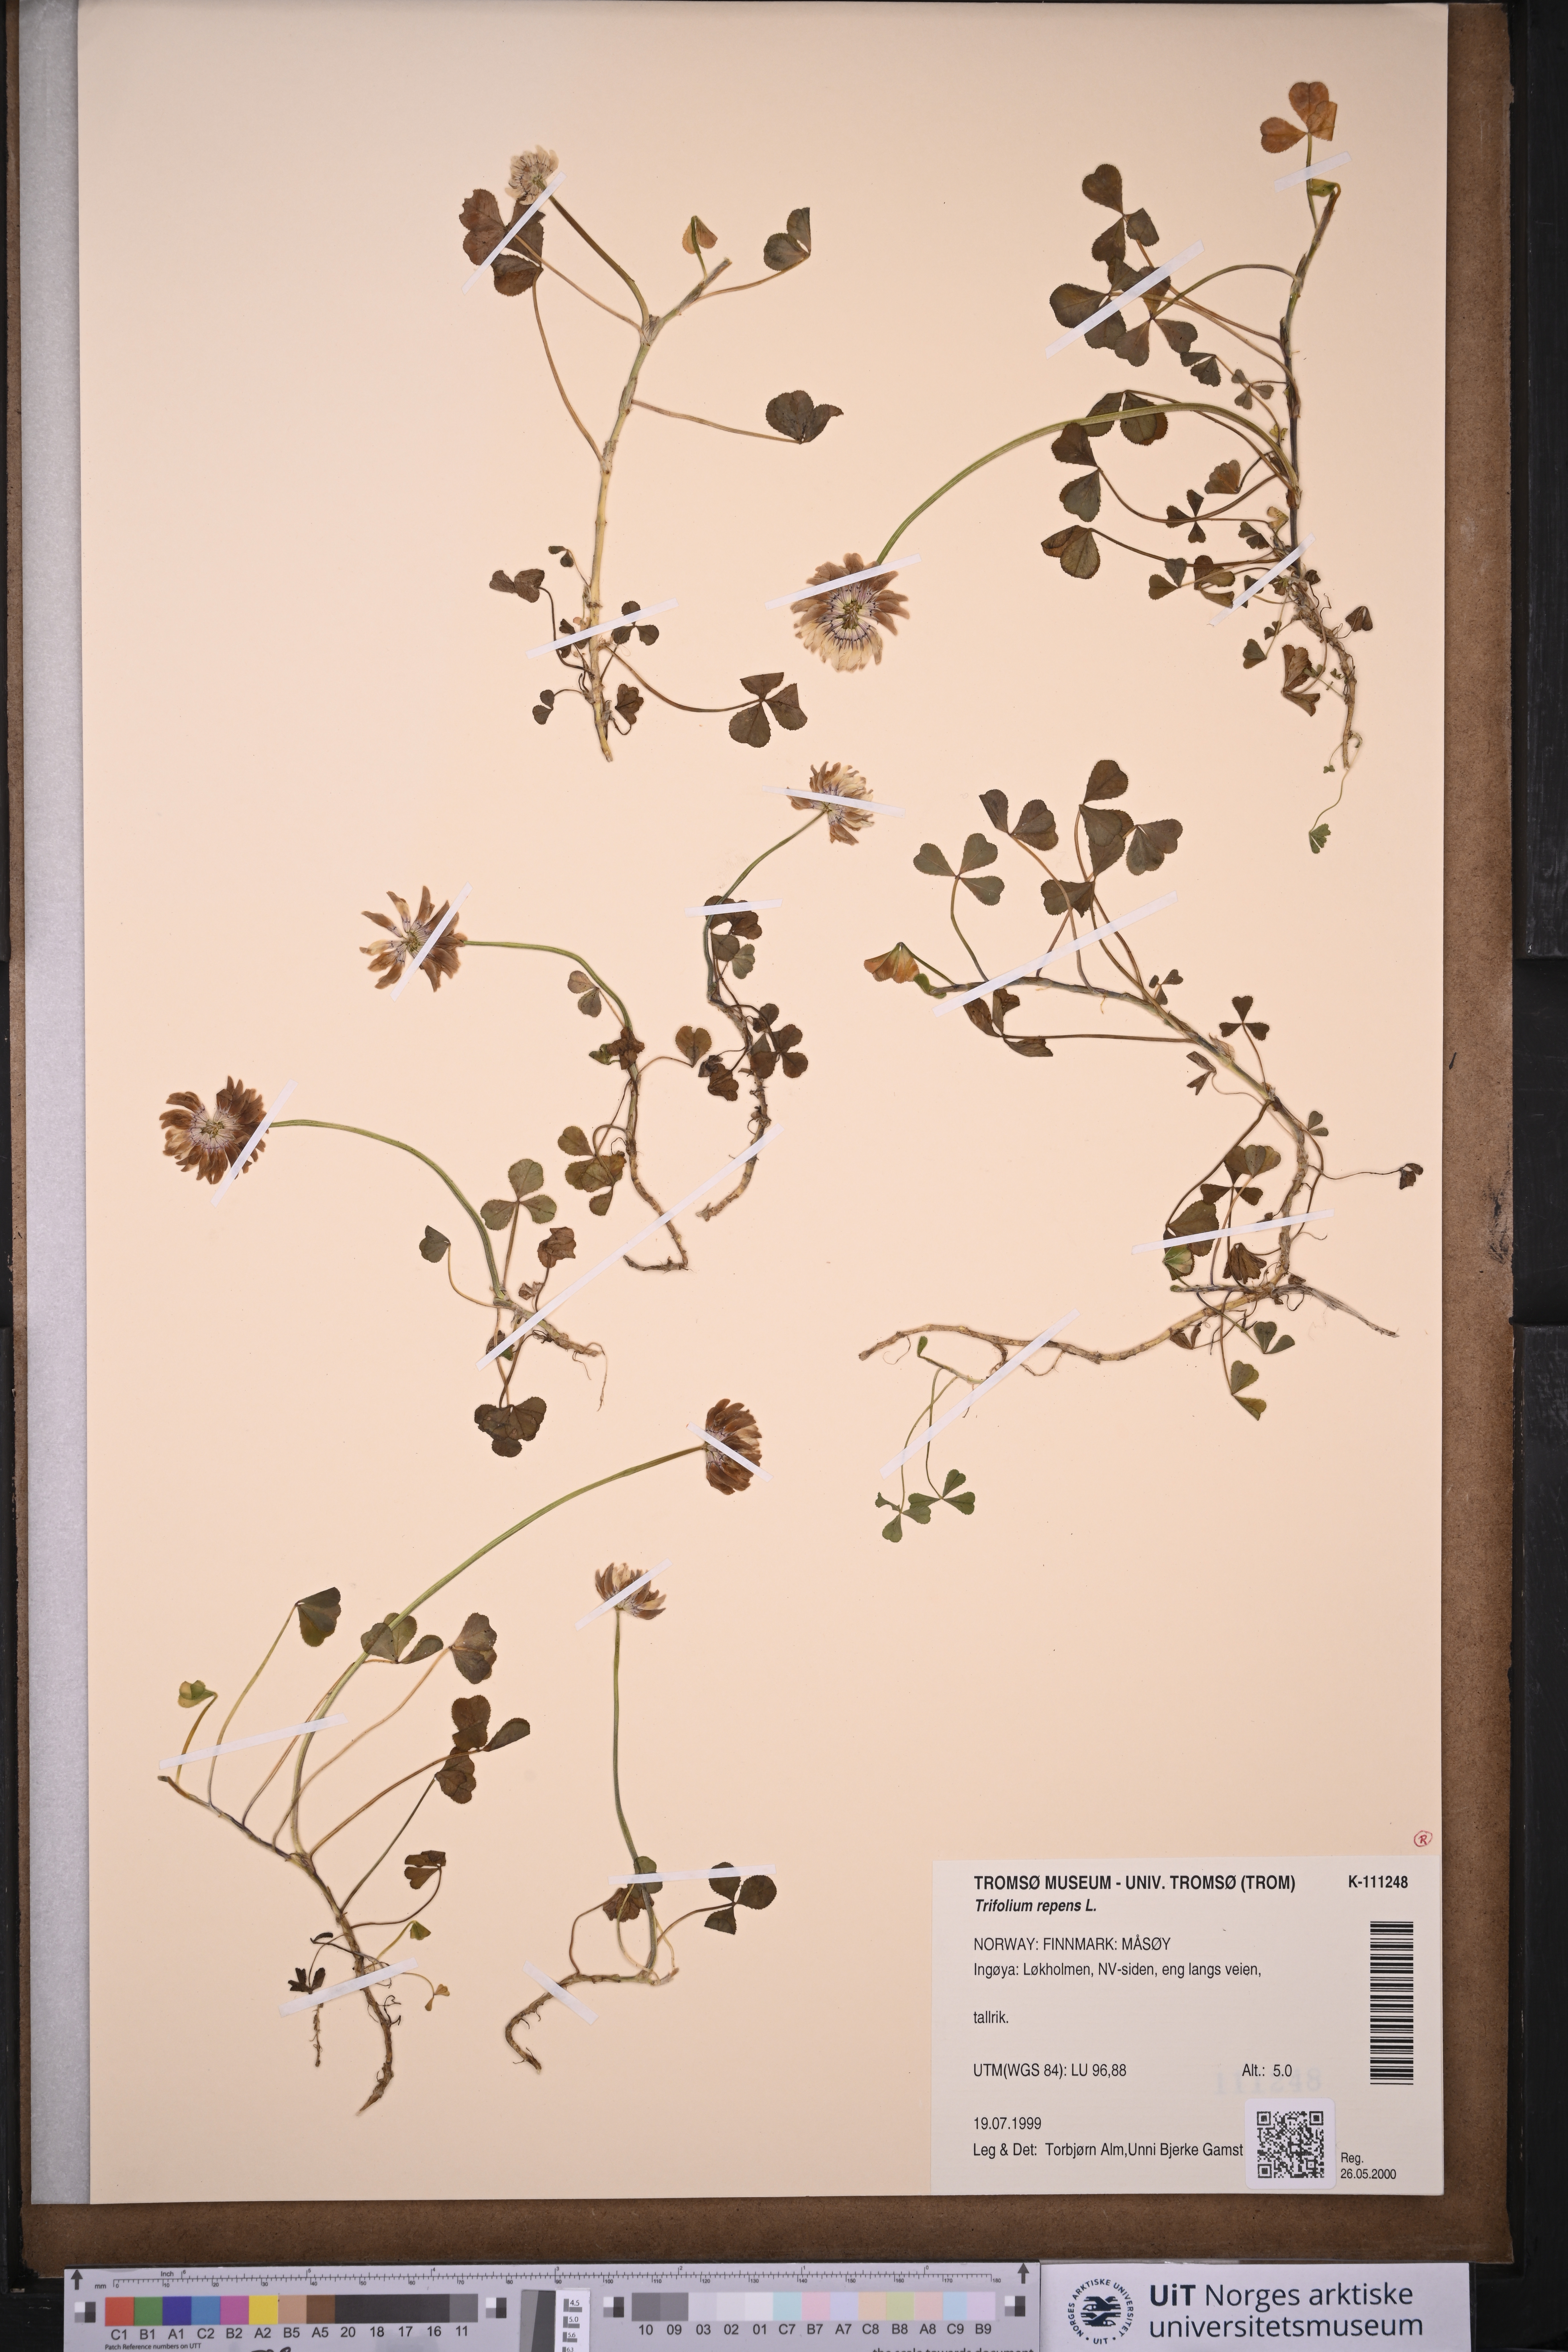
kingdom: Plantae
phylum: Tracheophyta
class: Magnoliopsida
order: Fabales
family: Fabaceae
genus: Trifolium
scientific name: Trifolium repens
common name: White clover
